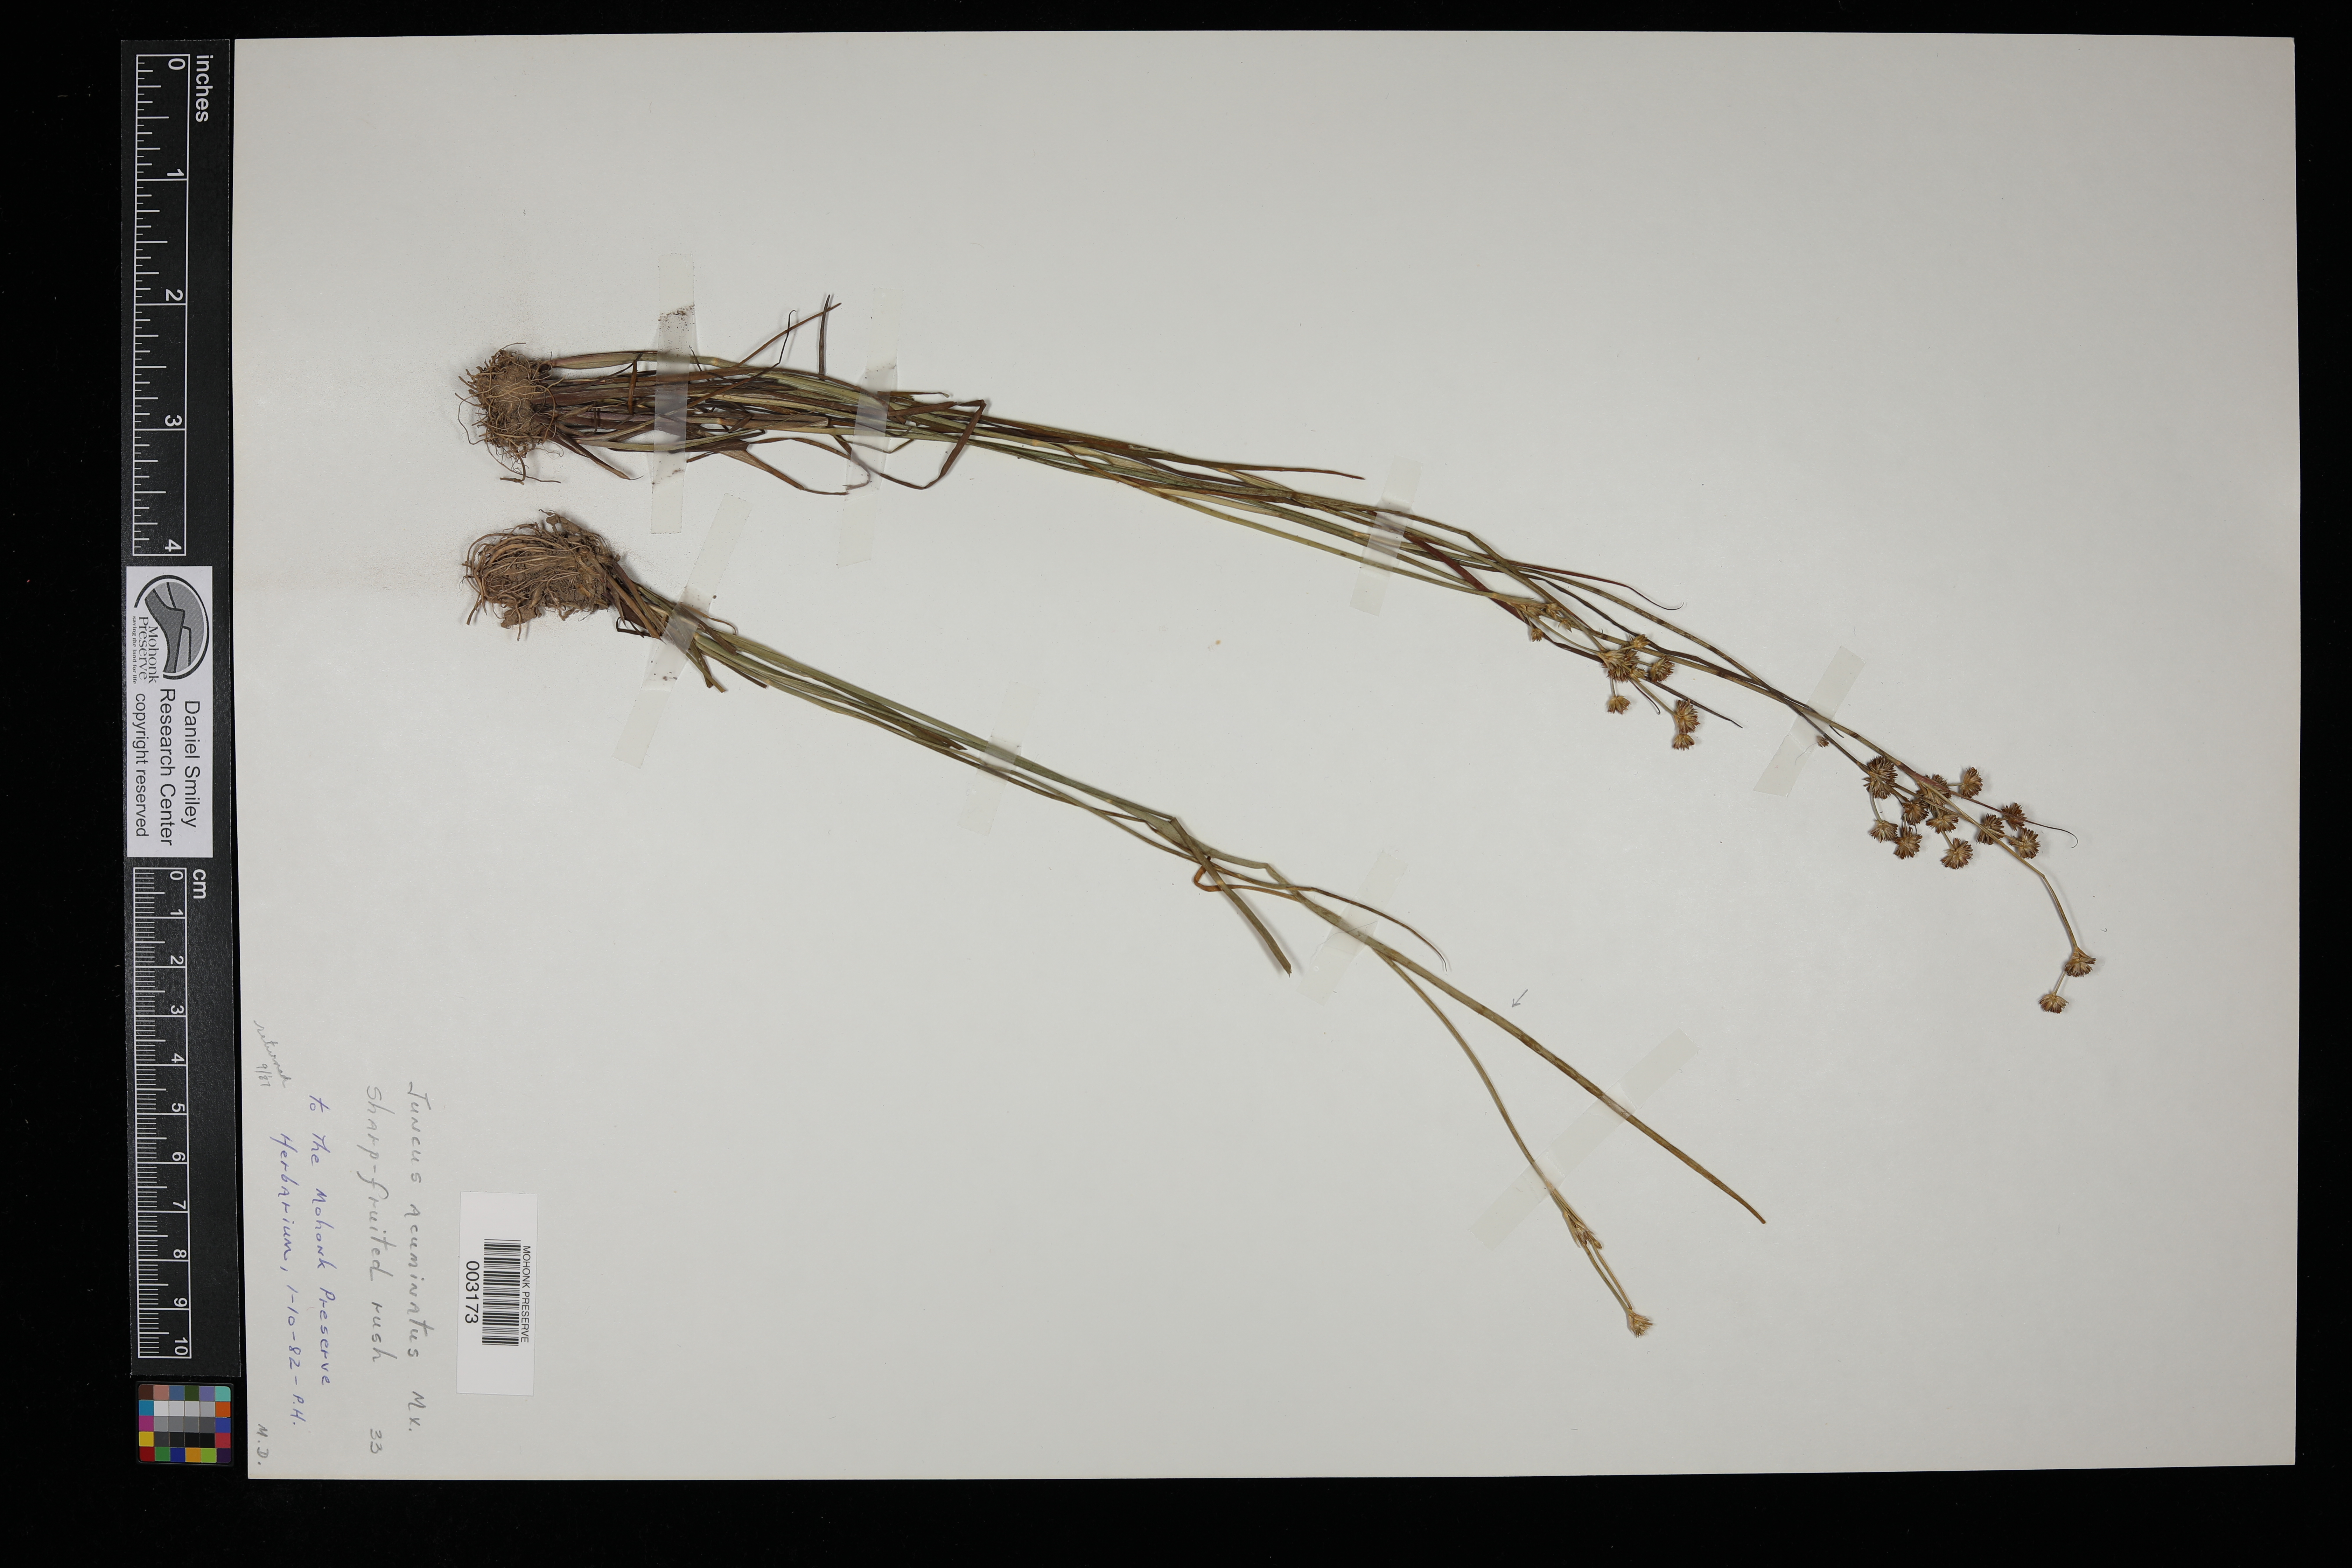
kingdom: Plantae
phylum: Tracheophyta
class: Liliopsida
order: Poales
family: Juncaceae
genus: Juncus
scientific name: Juncus acuminatus
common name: Knotty-leaved rush
